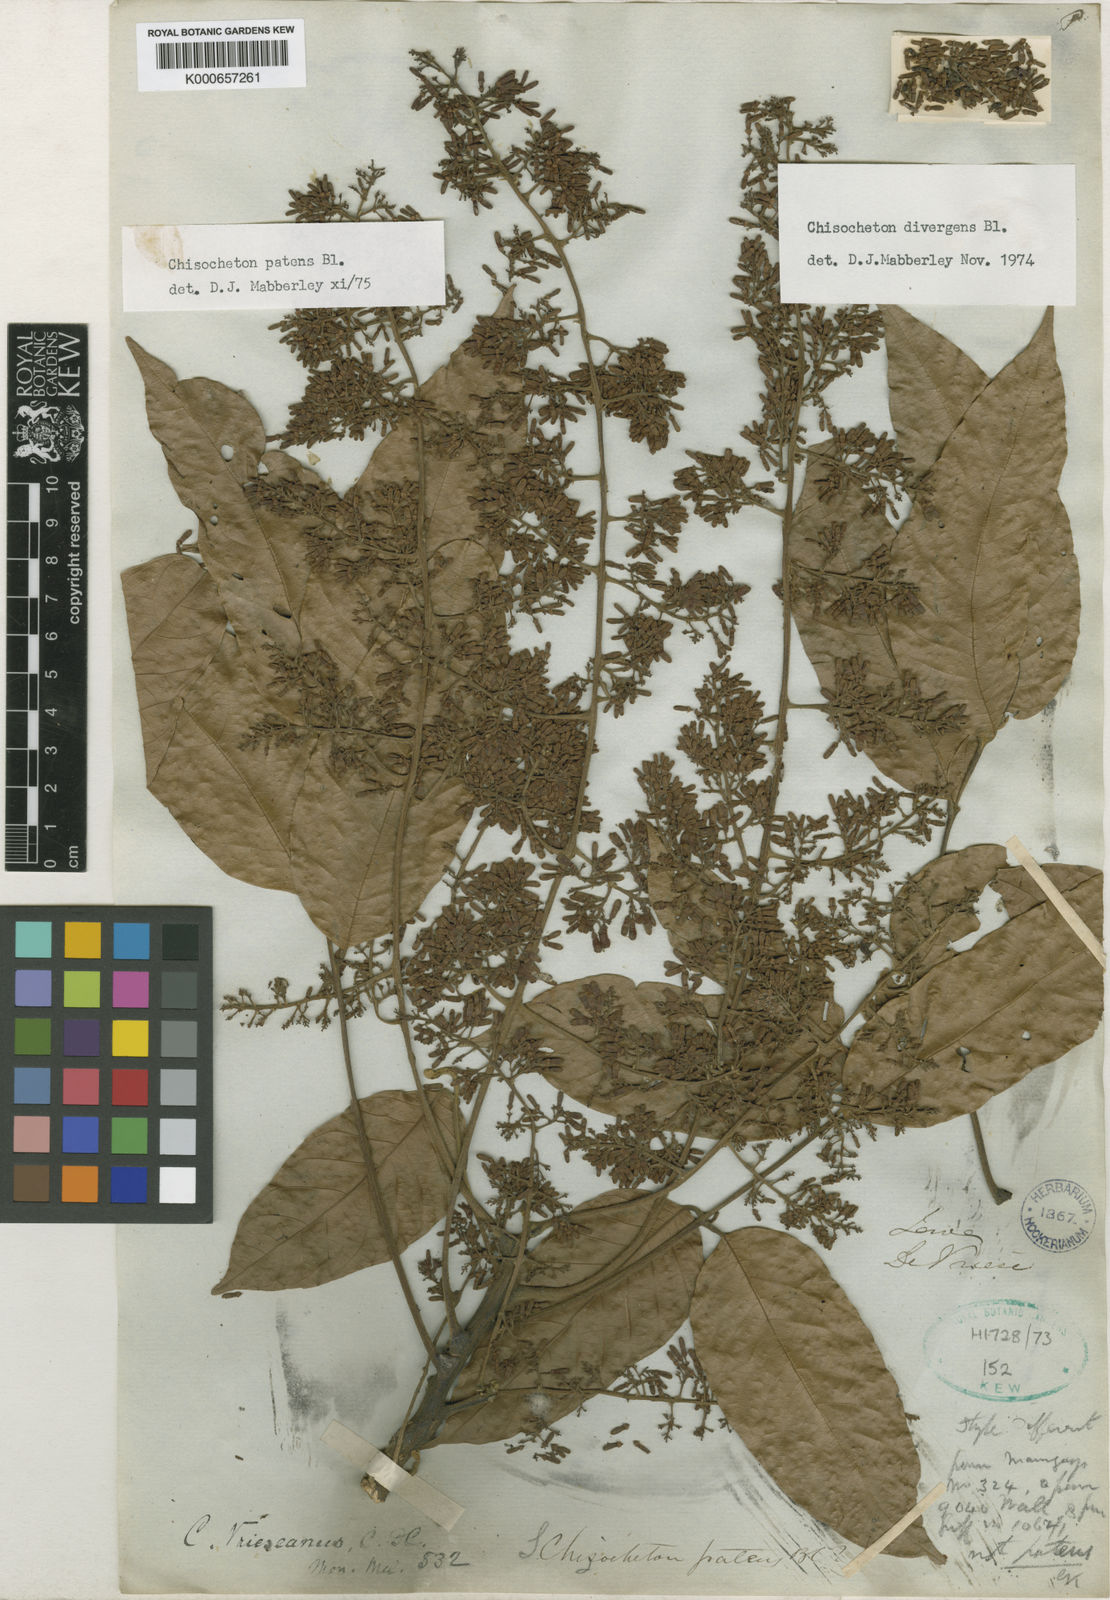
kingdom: Plantae
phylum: Tracheophyta
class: Magnoliopsida
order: Sapindales
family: Meliaceae
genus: Chisocheton
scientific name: Chisocheton patens
